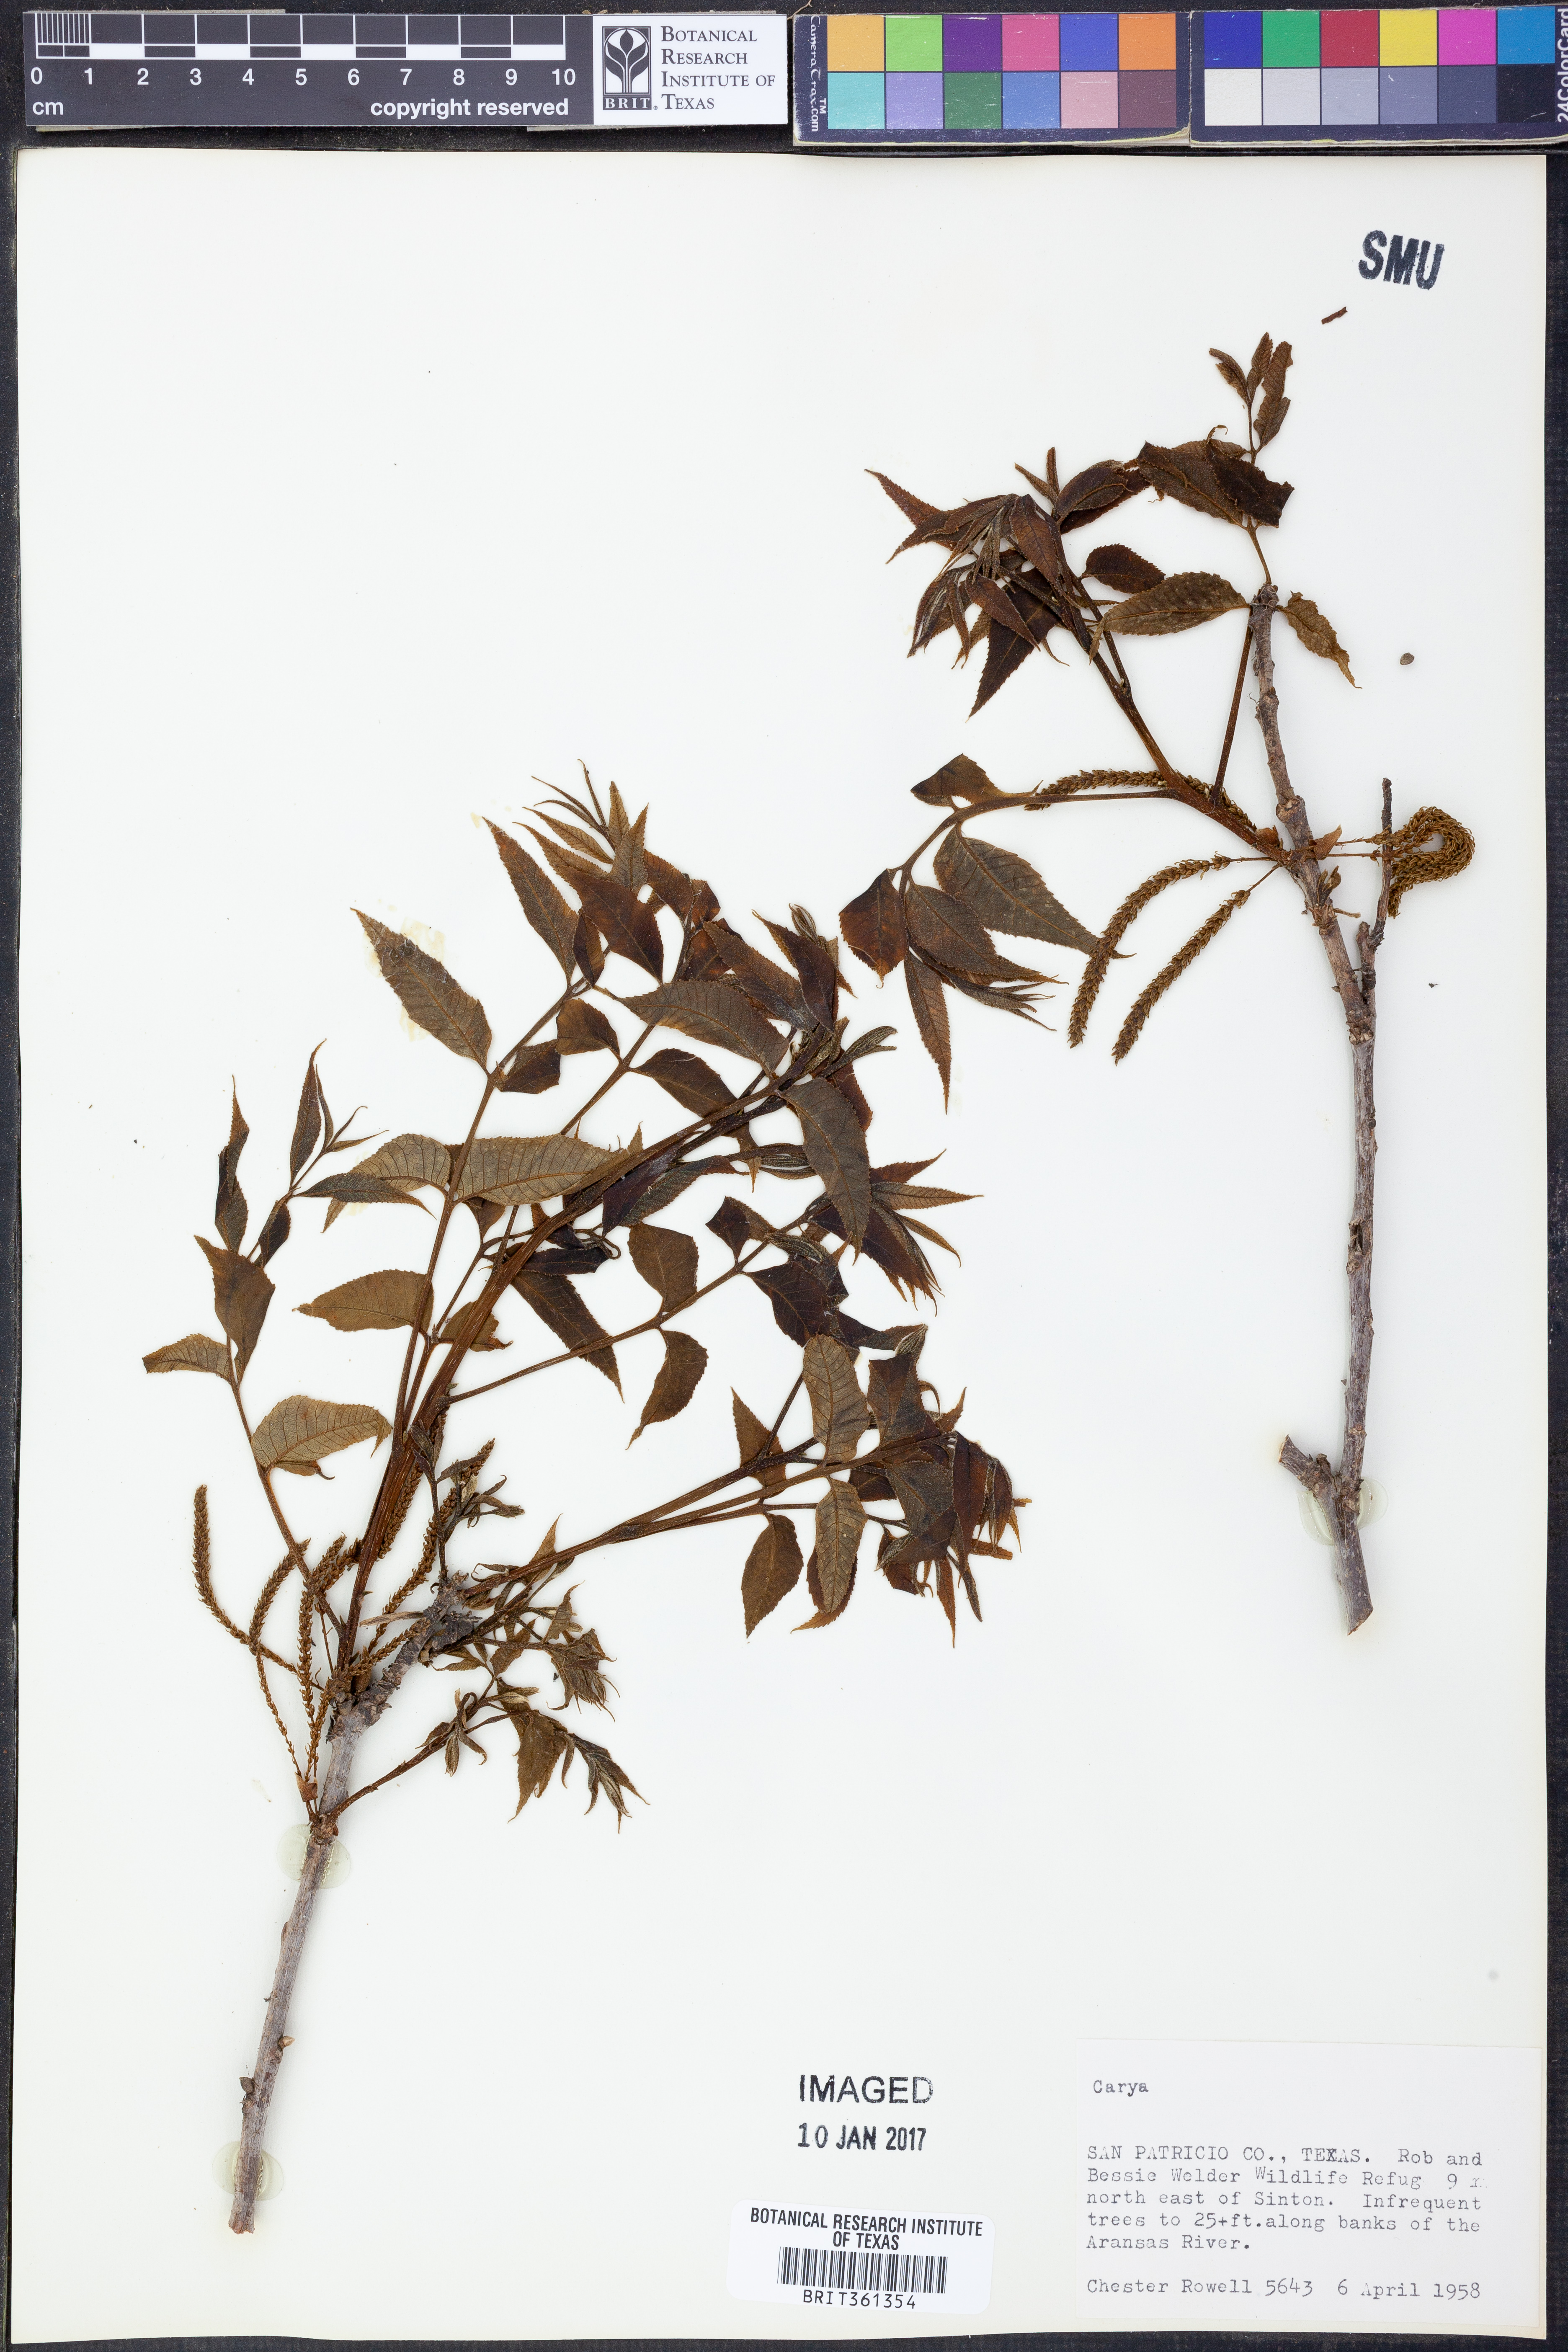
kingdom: Plantae
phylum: Tracheophyta
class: Magnoliopsida
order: Fagales
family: Juglandaceae
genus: Carya
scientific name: Carya
